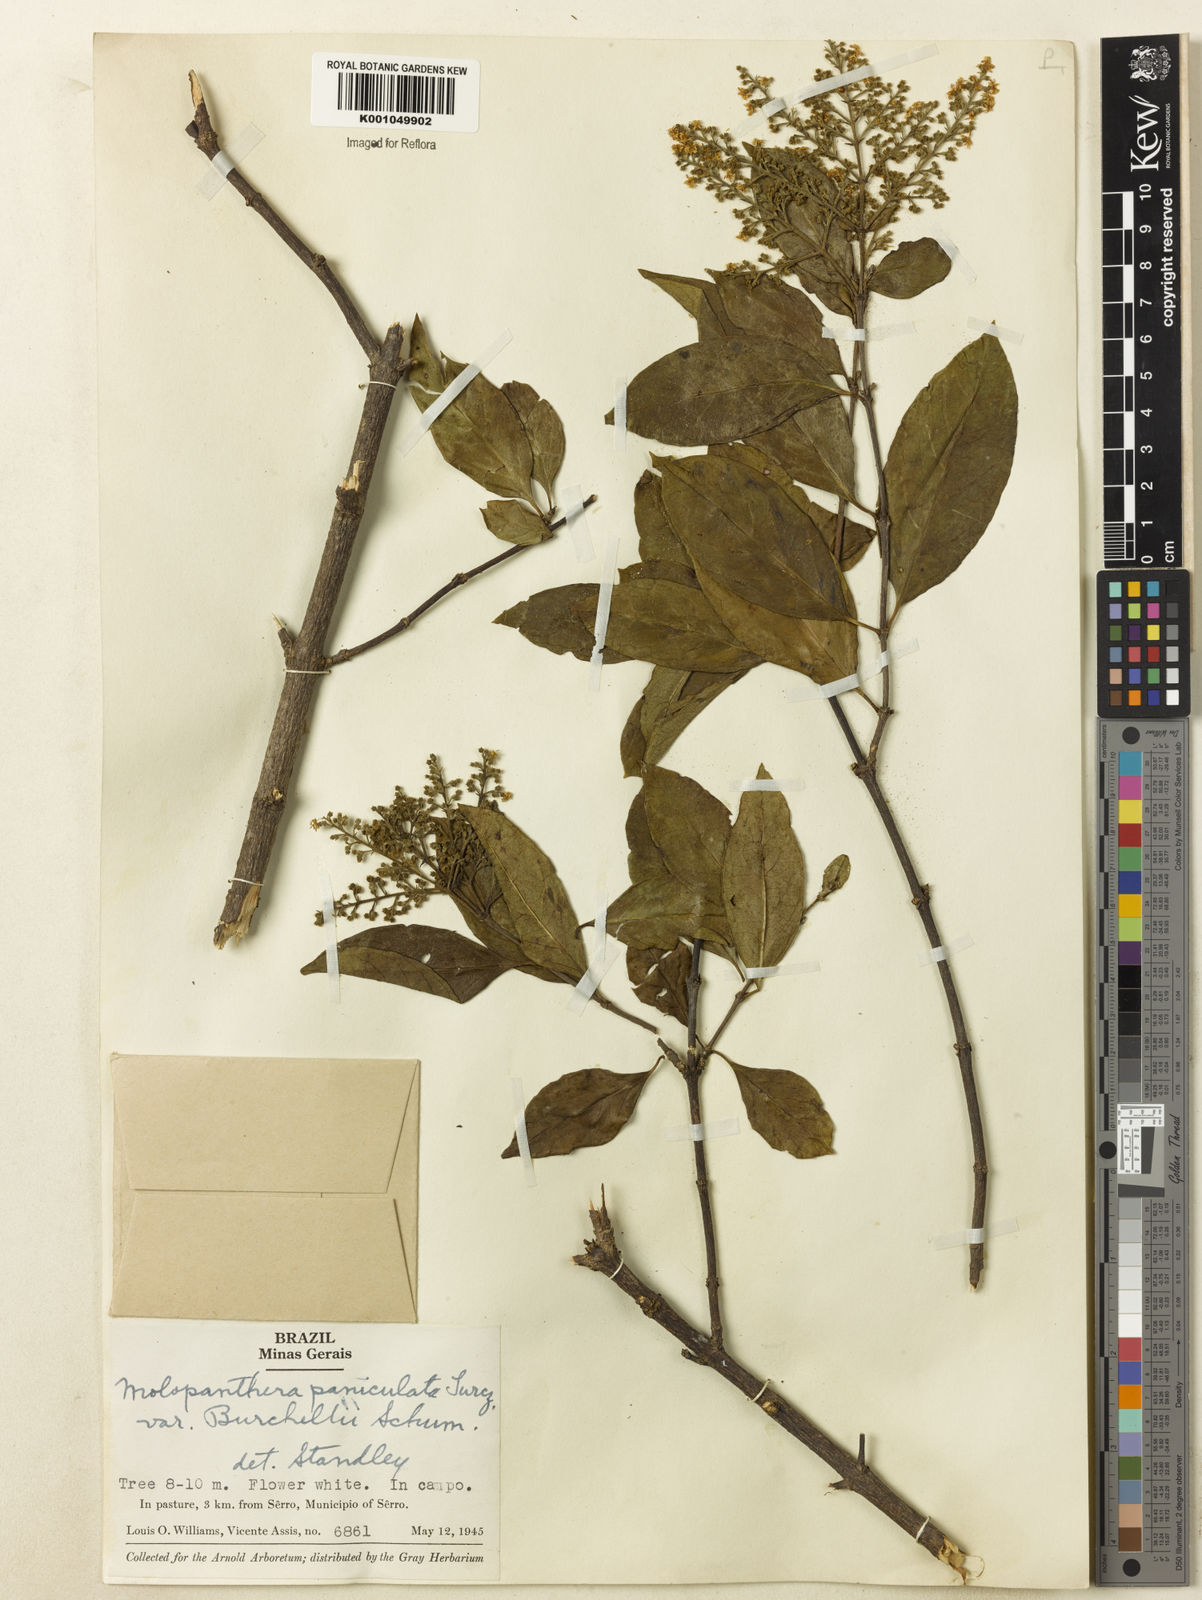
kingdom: Plantae
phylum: Tracheophyta
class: Magnoliopsida
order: Gentianales
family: Rubiaceae
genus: Molopanthera
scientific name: Molopanthera paniculata
